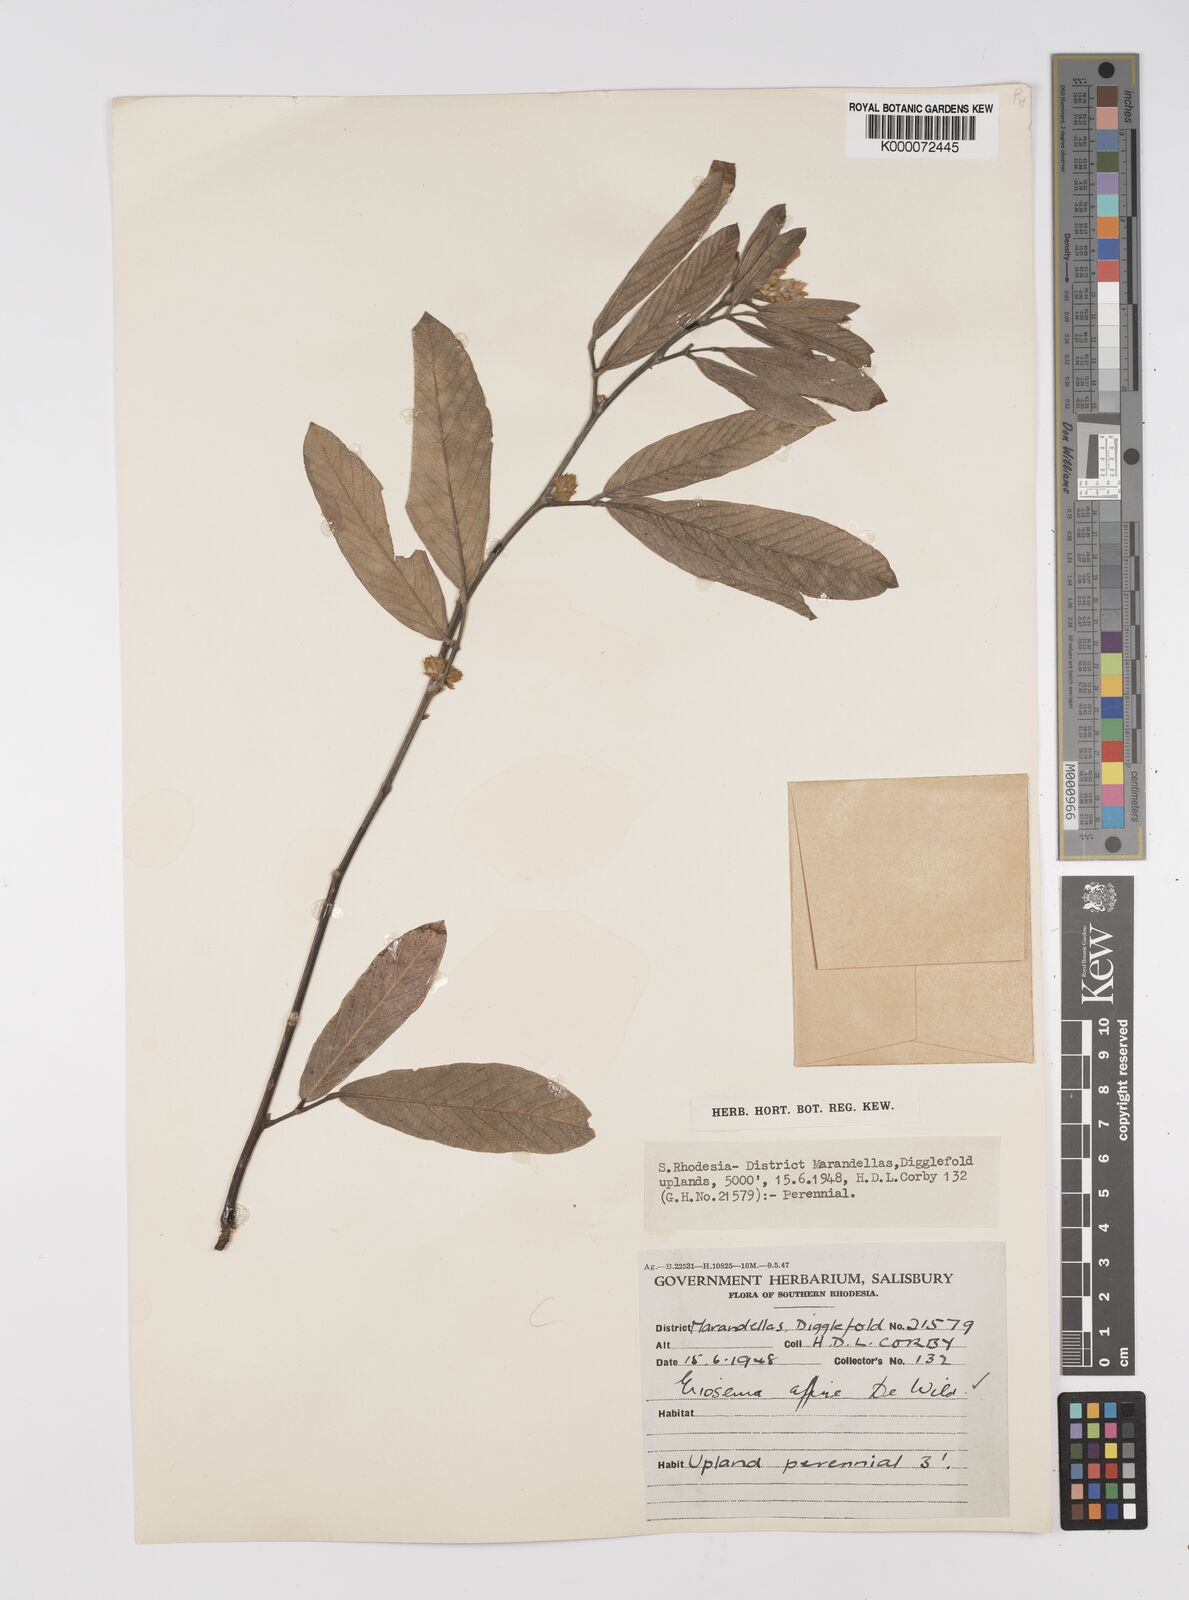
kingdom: Plantae
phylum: Tracheophyta
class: Magnoliopsida
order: Fabales
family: Fabaceae
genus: Eriosema
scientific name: Eriosema affine
